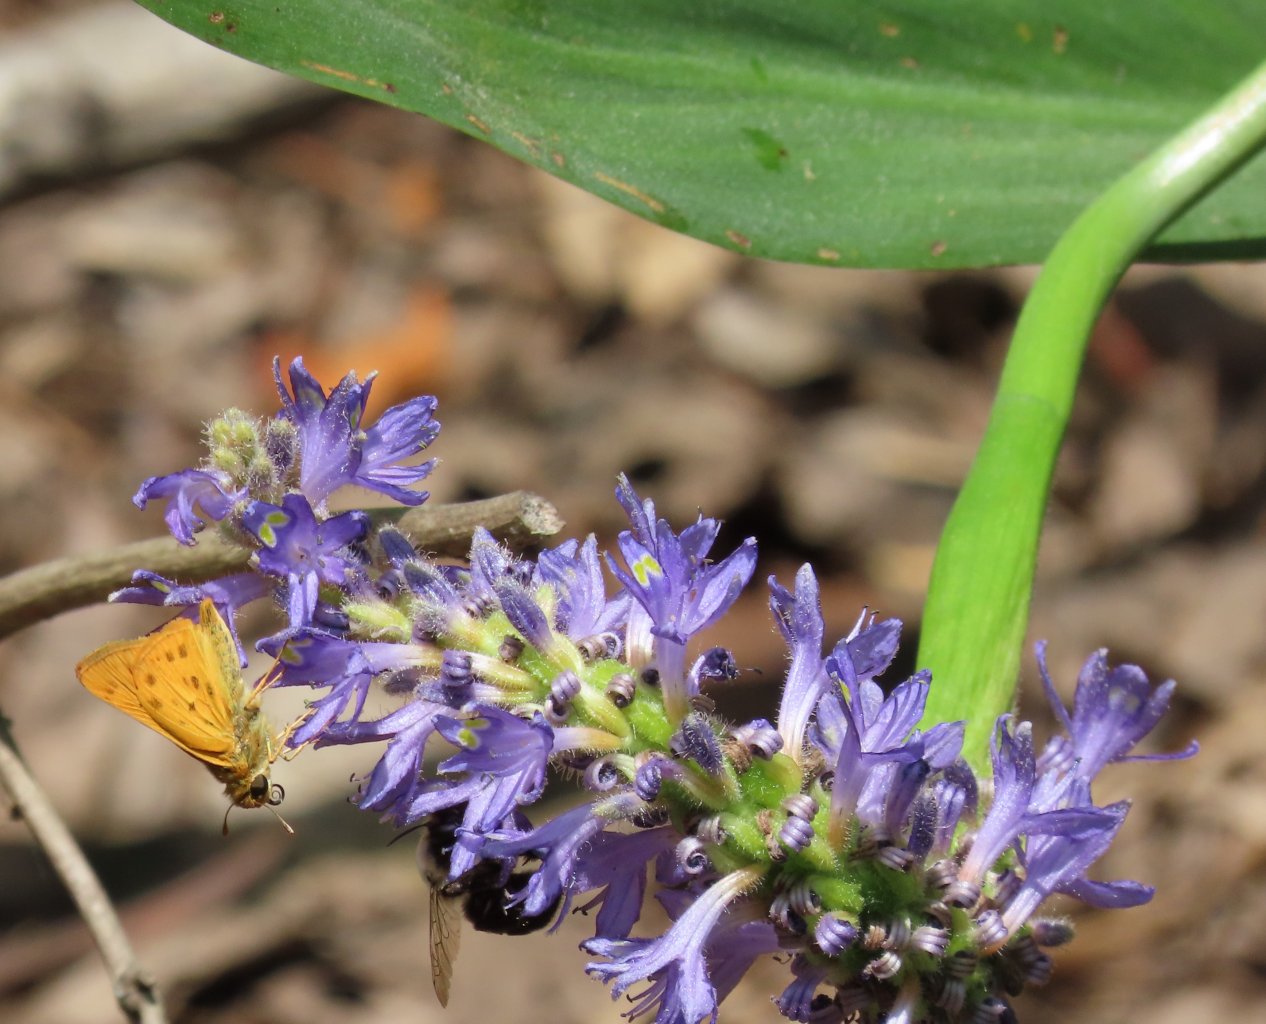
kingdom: Animalia
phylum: Arthropoda
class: Insecta
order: Lepidoptera
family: Hesperiidae
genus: Hylephila
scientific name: Hylephila phyleus
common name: Fiery Skipper
